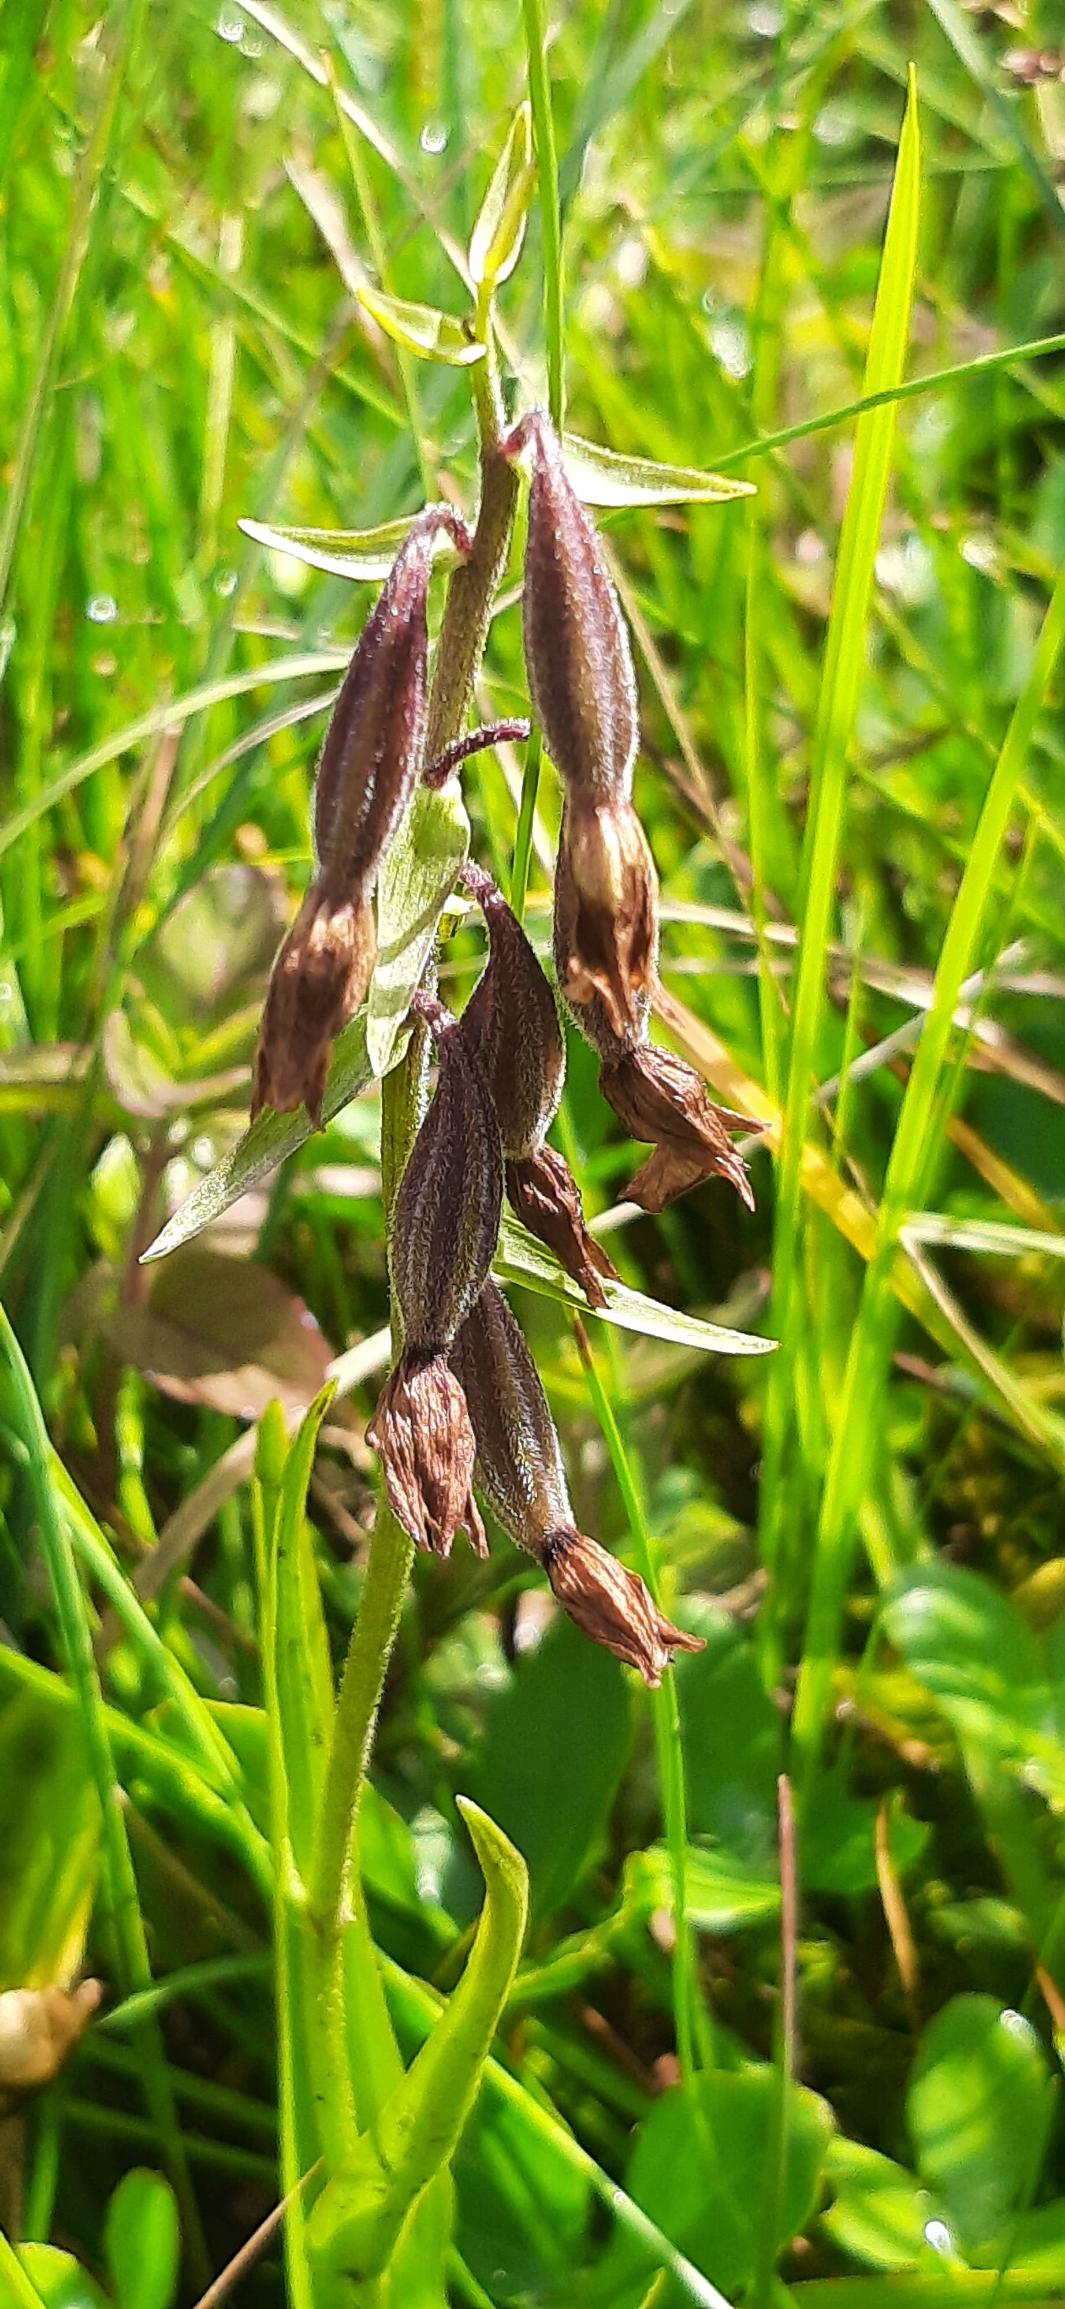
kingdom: Plantae
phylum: Tracheophyta
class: Liliopsida
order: Asparagales
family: Orchidaceae
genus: Epipactis
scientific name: Epipactis palustris
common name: Sump-hullæbe
